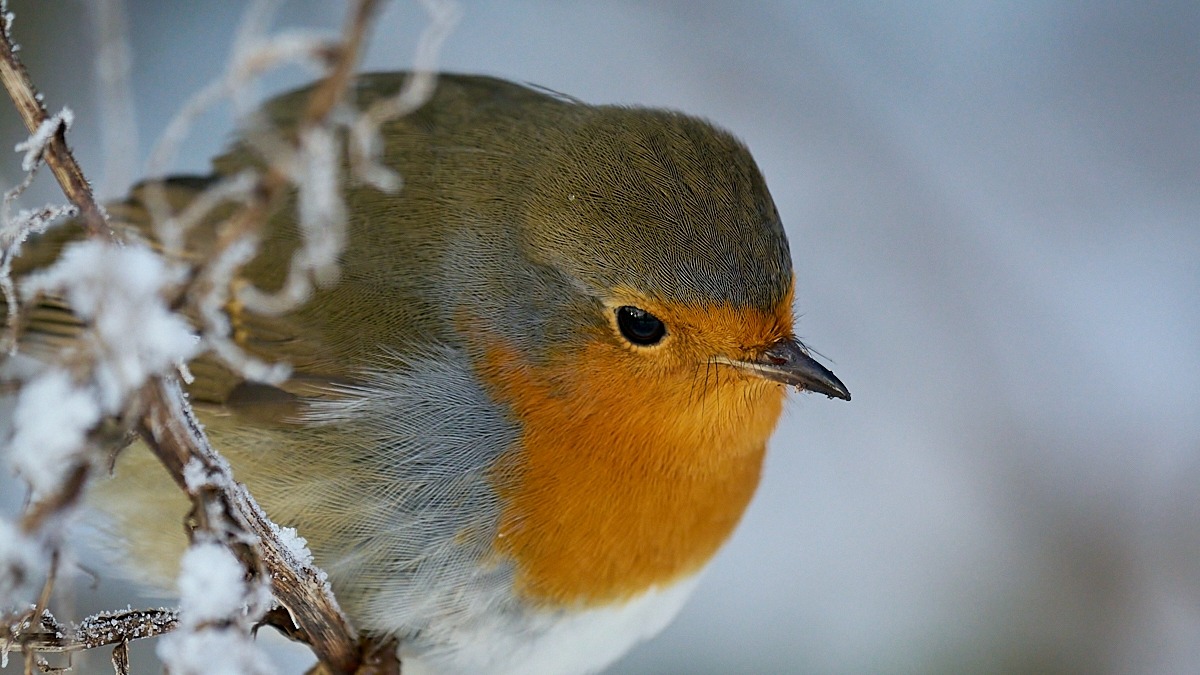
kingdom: Animalia
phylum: Chordata
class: Aves
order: Passeriformes
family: Muscicapidae
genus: Erithacus
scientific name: Erithacus rubecula
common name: Rødhals/rødkælk
